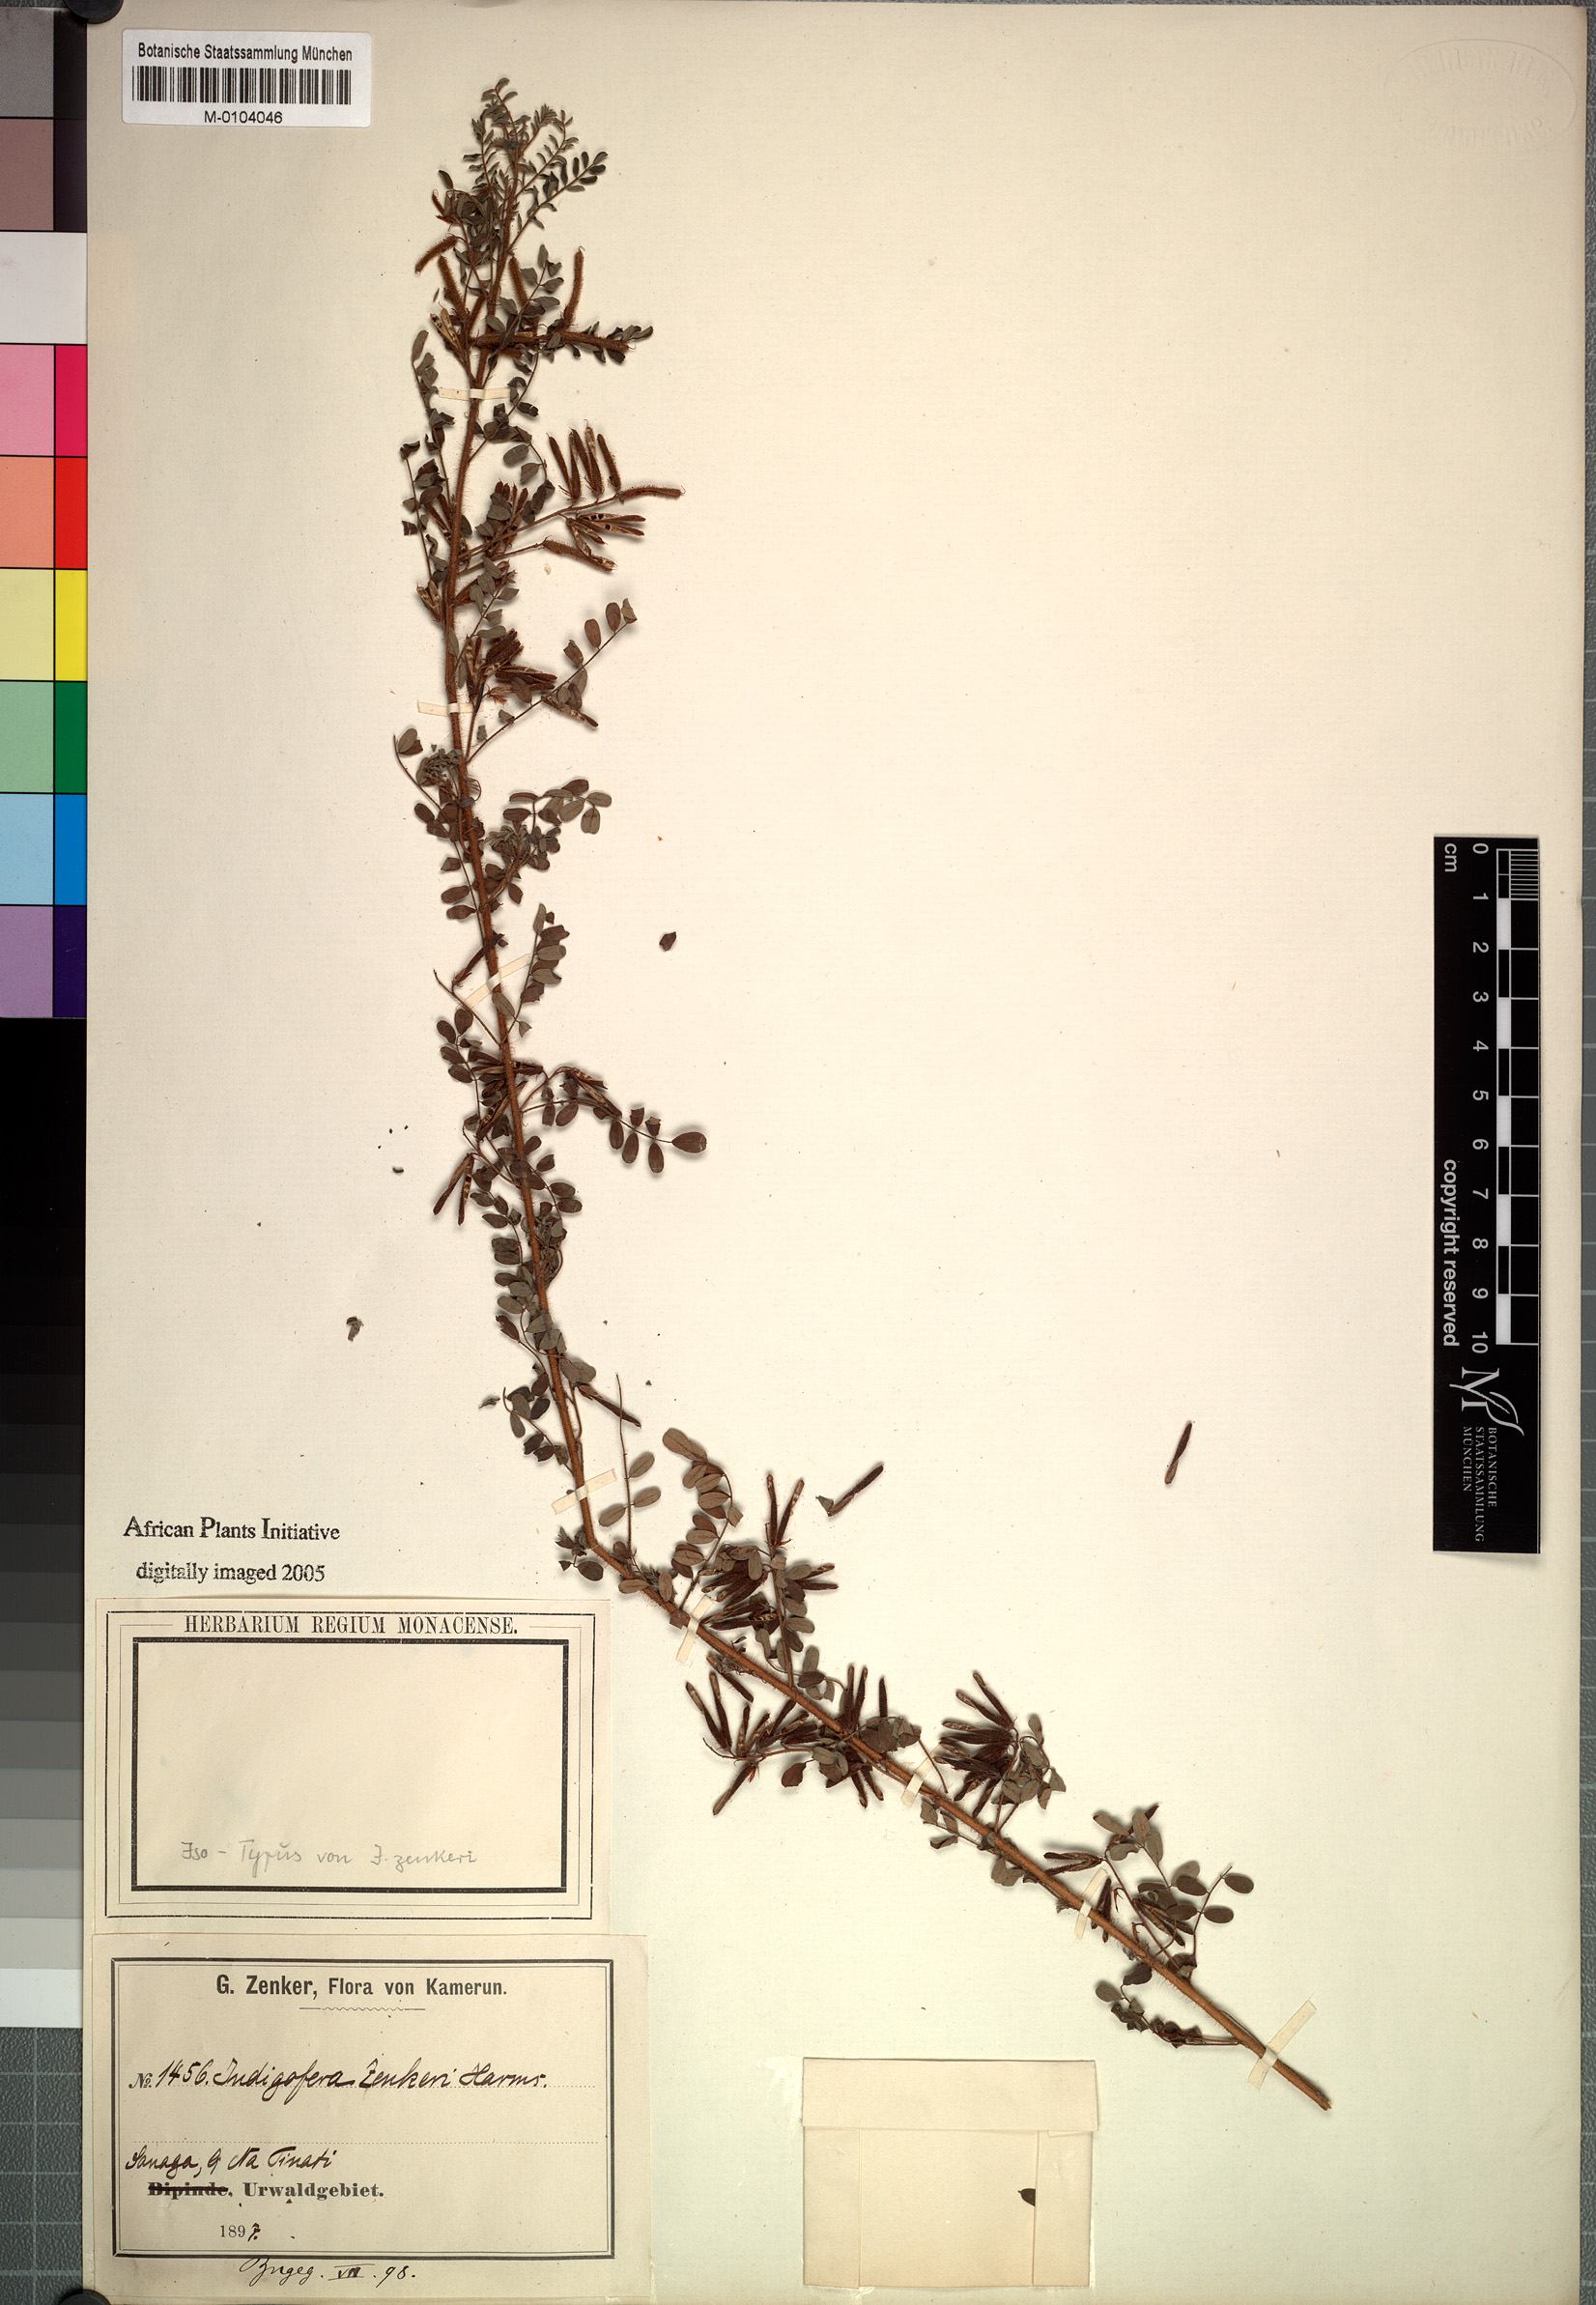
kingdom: Plantae
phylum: Tracheophyta
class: Magnoliopsida
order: Fabales
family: Fabaceae
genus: Indigofera
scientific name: Indigofera zenkeri
